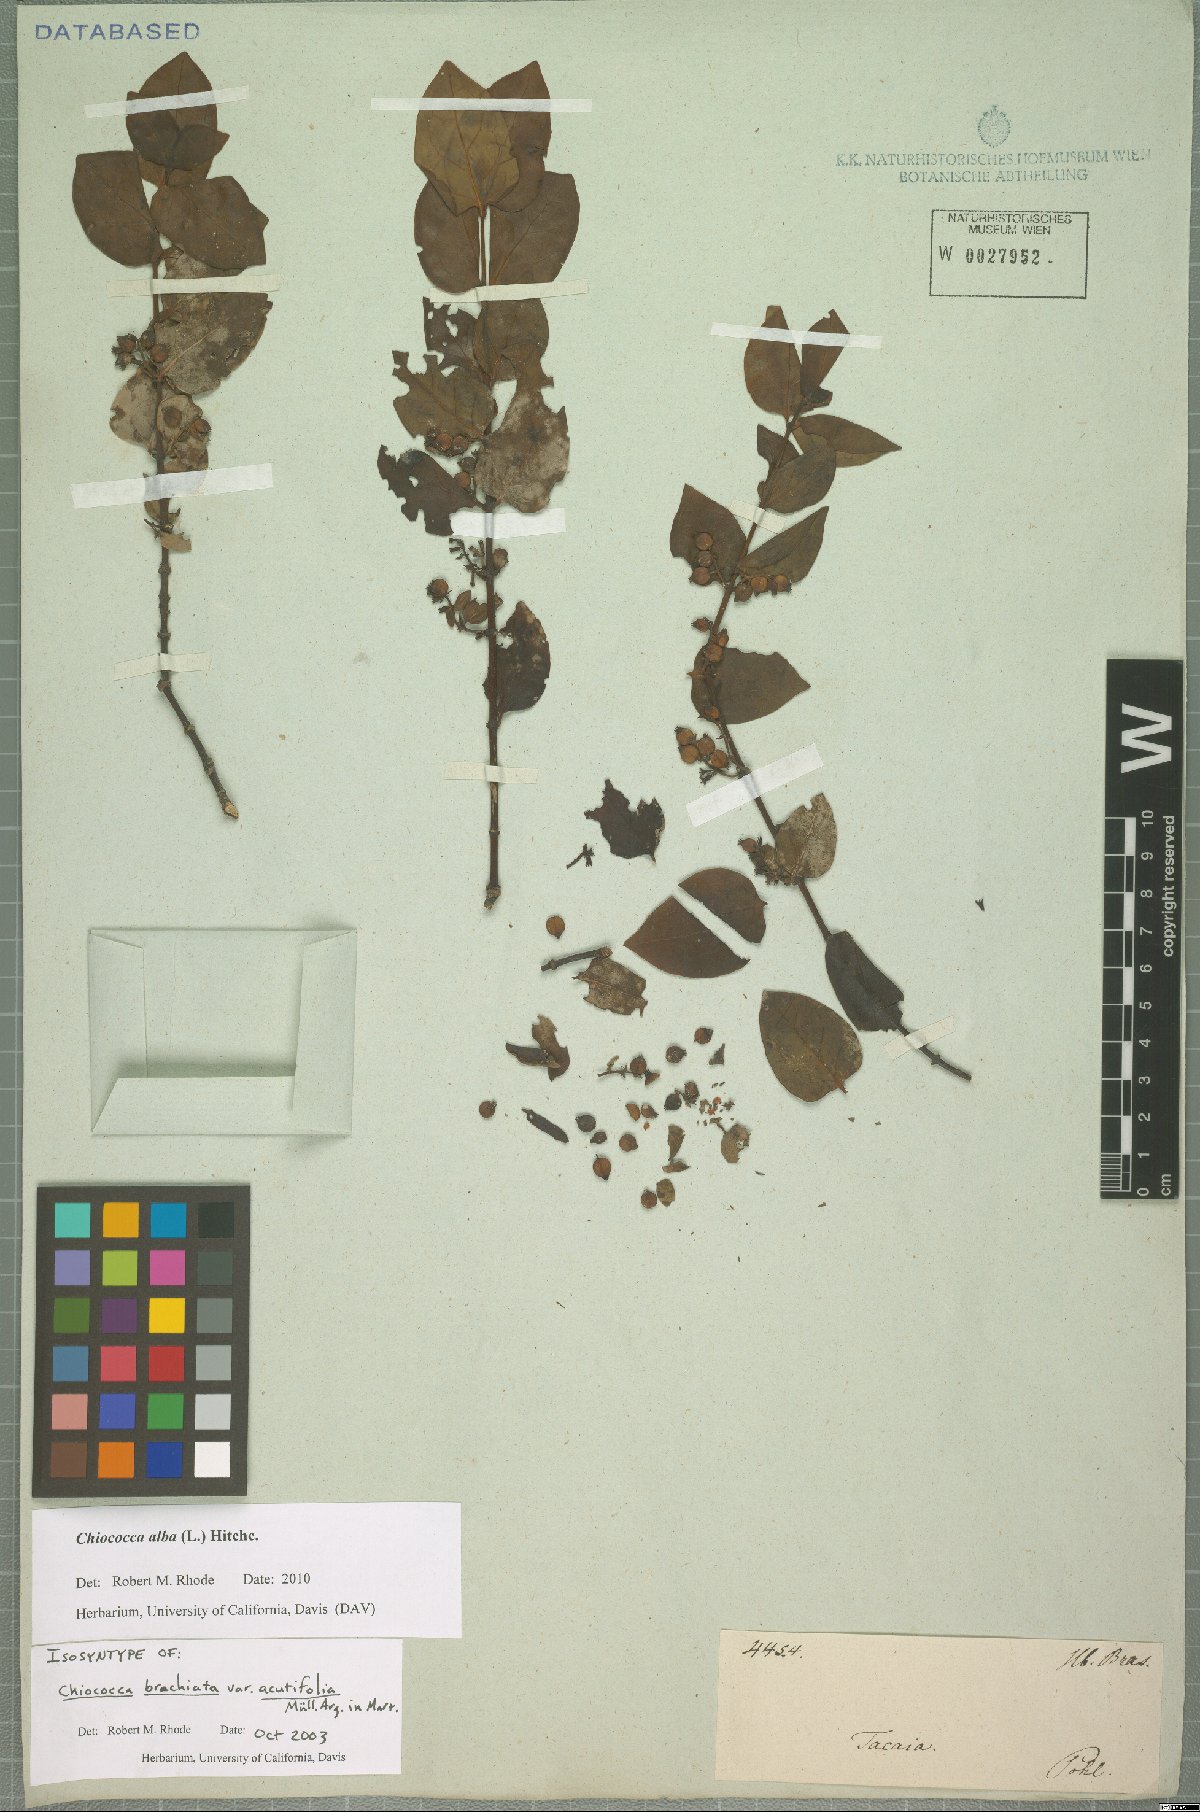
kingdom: Plantae
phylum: Tracheophyta
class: Magnoliopsida
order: Gentianales
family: Rubiaceae
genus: Chiococca
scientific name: Chiococca alba
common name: Snowberry
